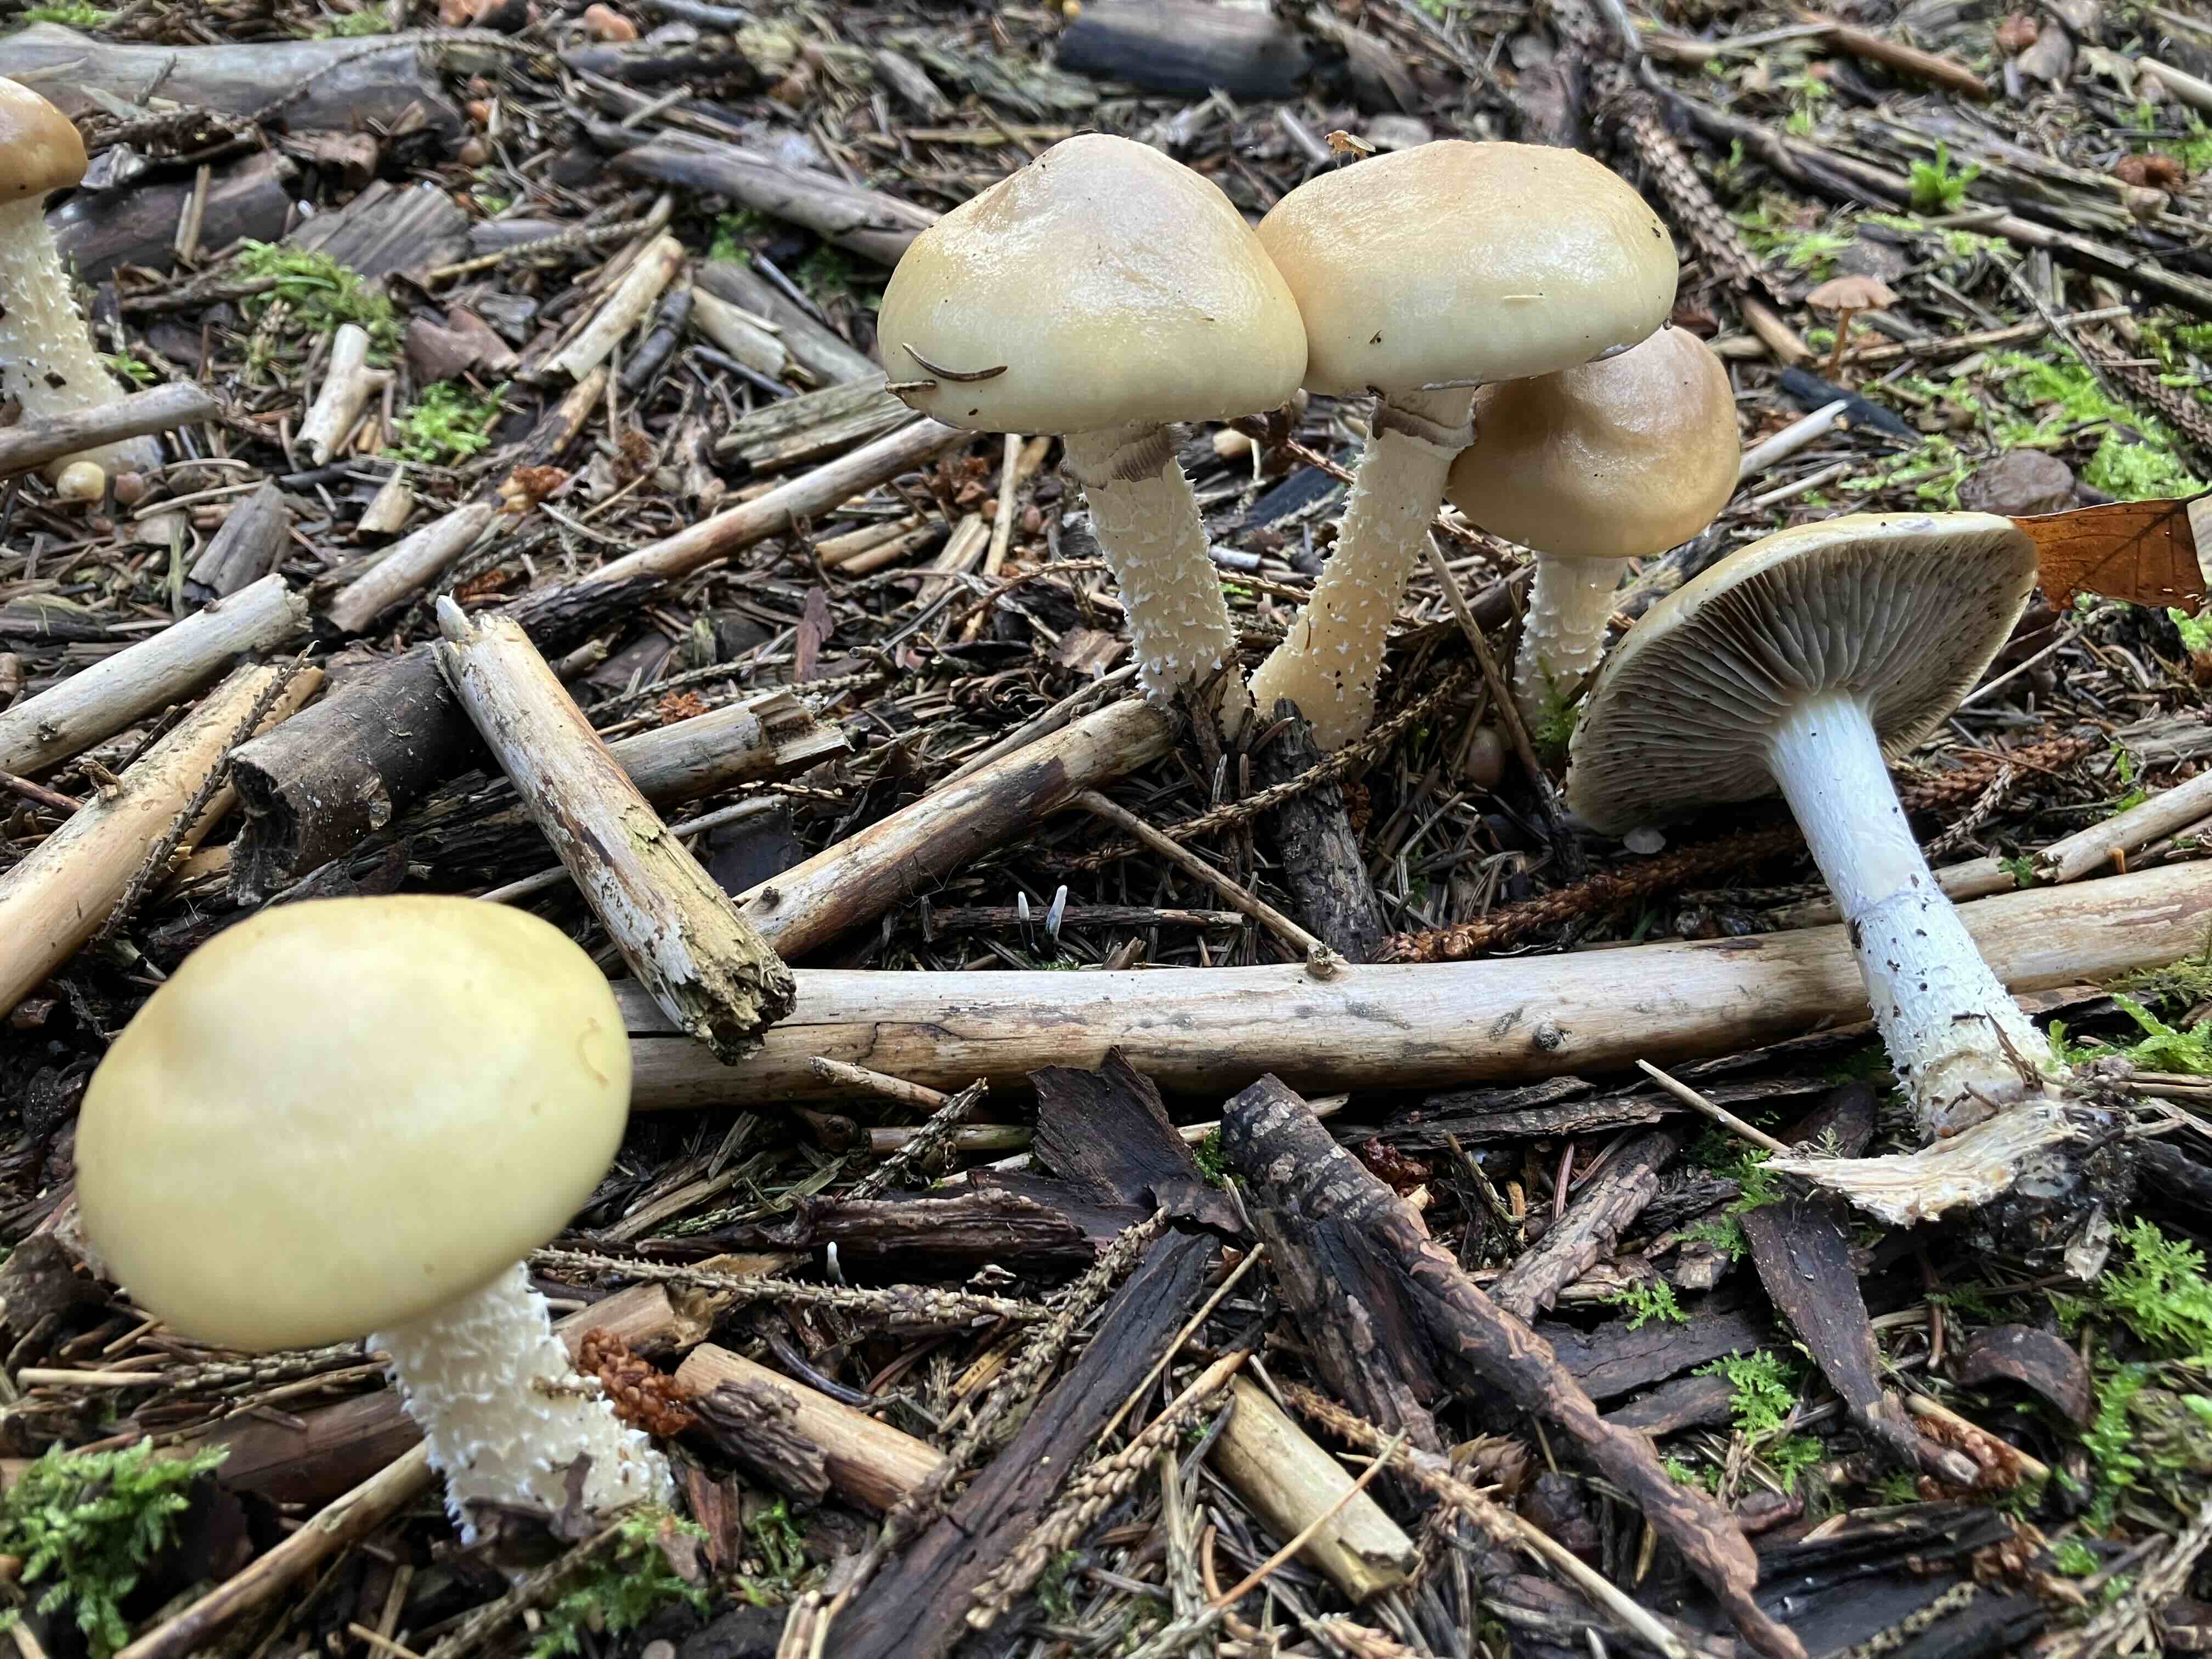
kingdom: Fungi
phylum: Basidiomycota
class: Agaricomycetes
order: Agaricales
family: Strophariaceae
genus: Stropharia
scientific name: Stropharia hornemannii
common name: nordisk bredblad
